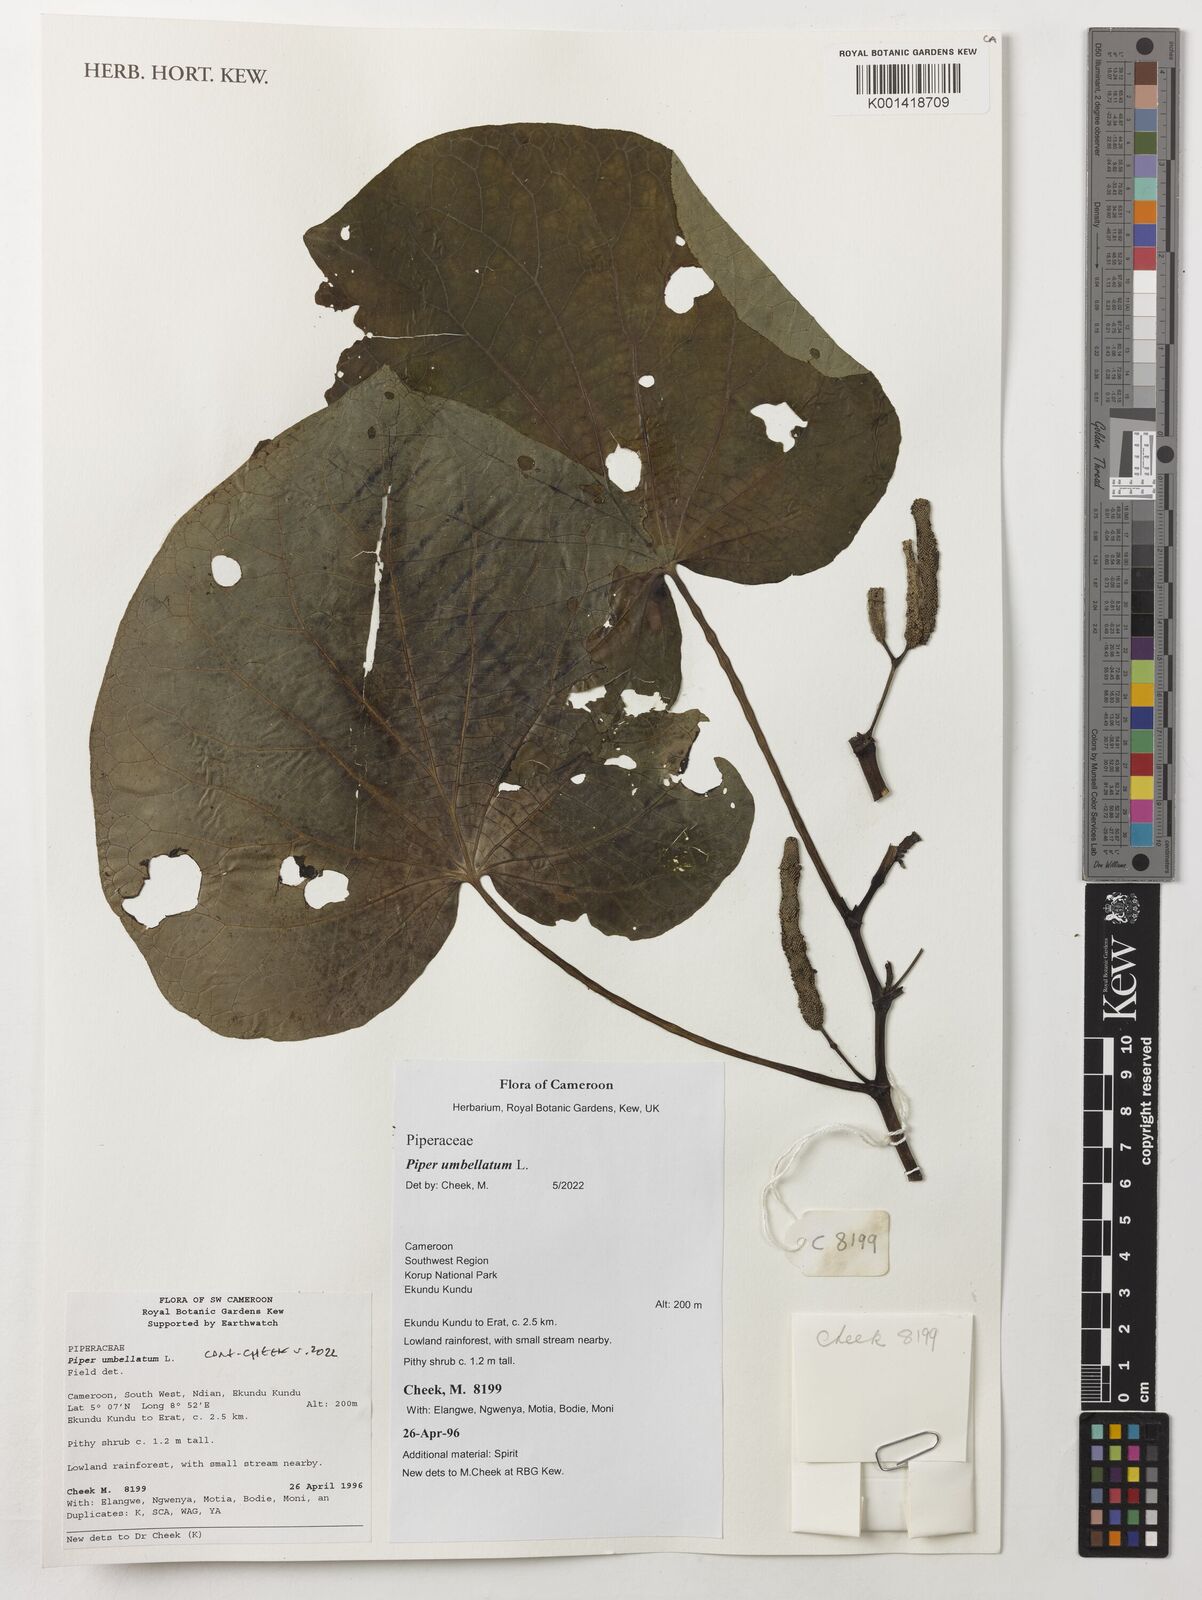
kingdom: Plantae
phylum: Tracheophyta
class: Magnoliopsida
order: Piperales
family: Piperaceae
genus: Piper
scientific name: Piper umbellatum
